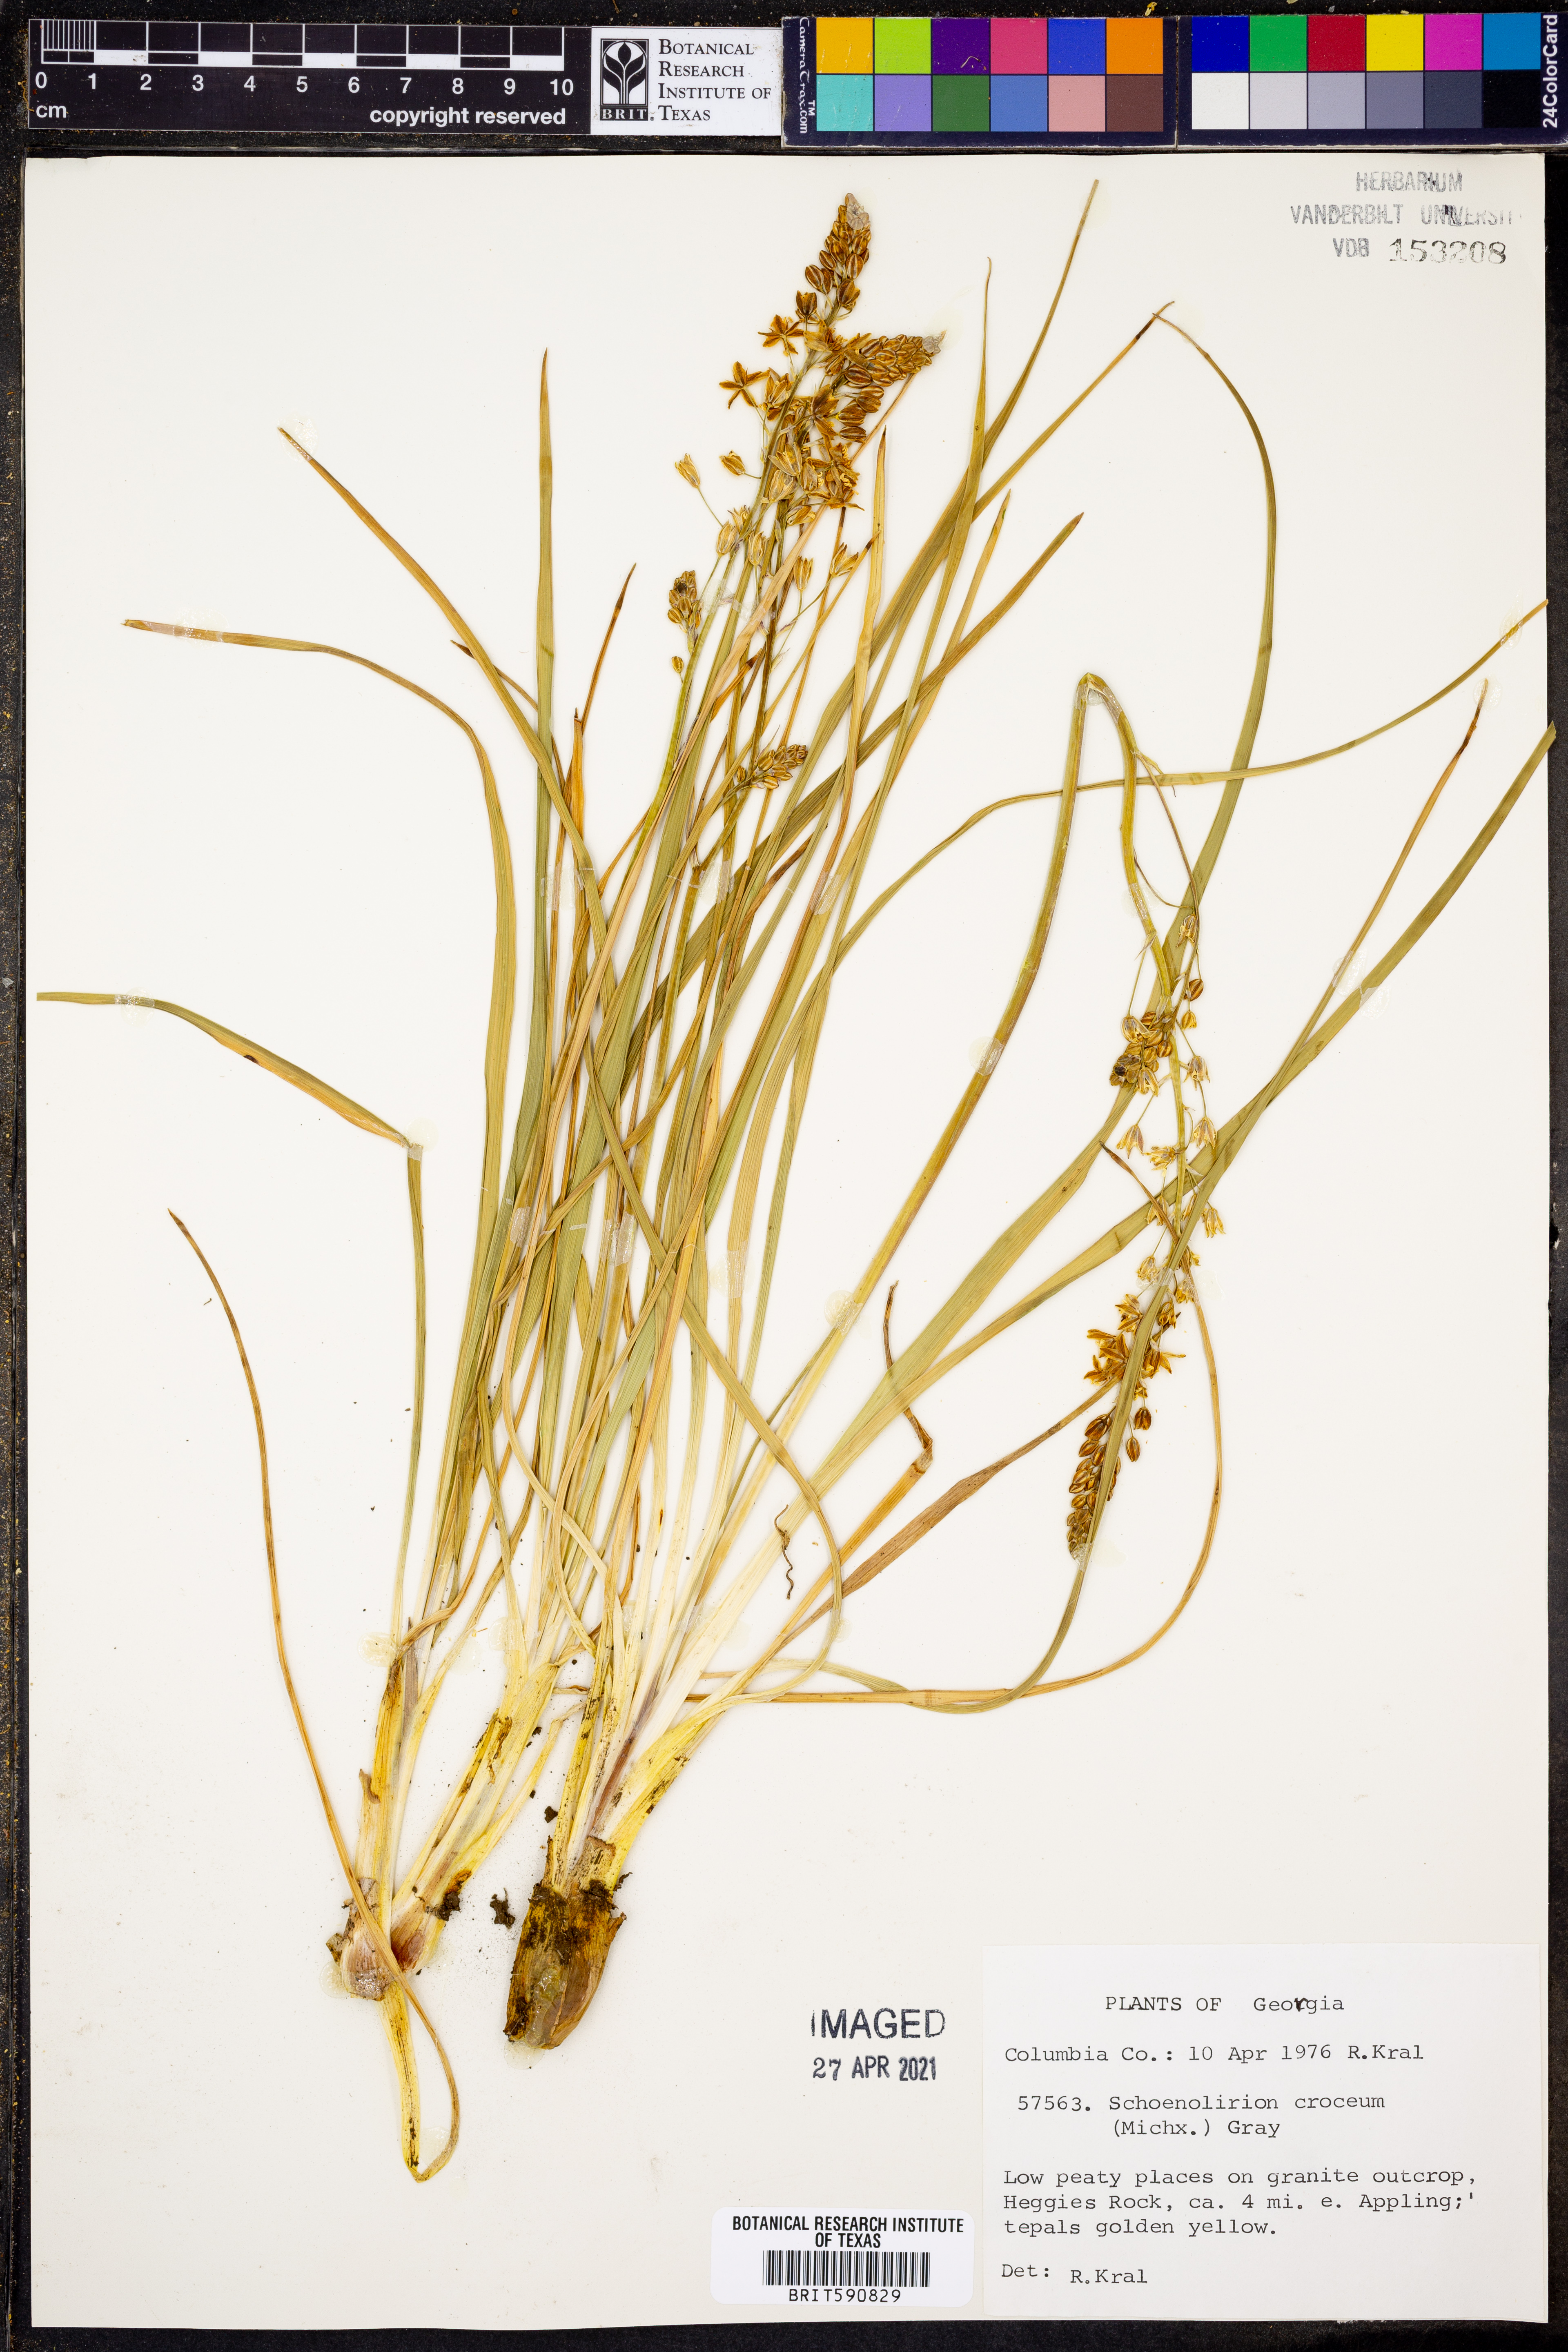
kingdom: Plantae
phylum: Tracheophyta
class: Liliopsida
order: Asparagales
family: Asparagaceae
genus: Schoenolirion
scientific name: Schoenolirion croceum
